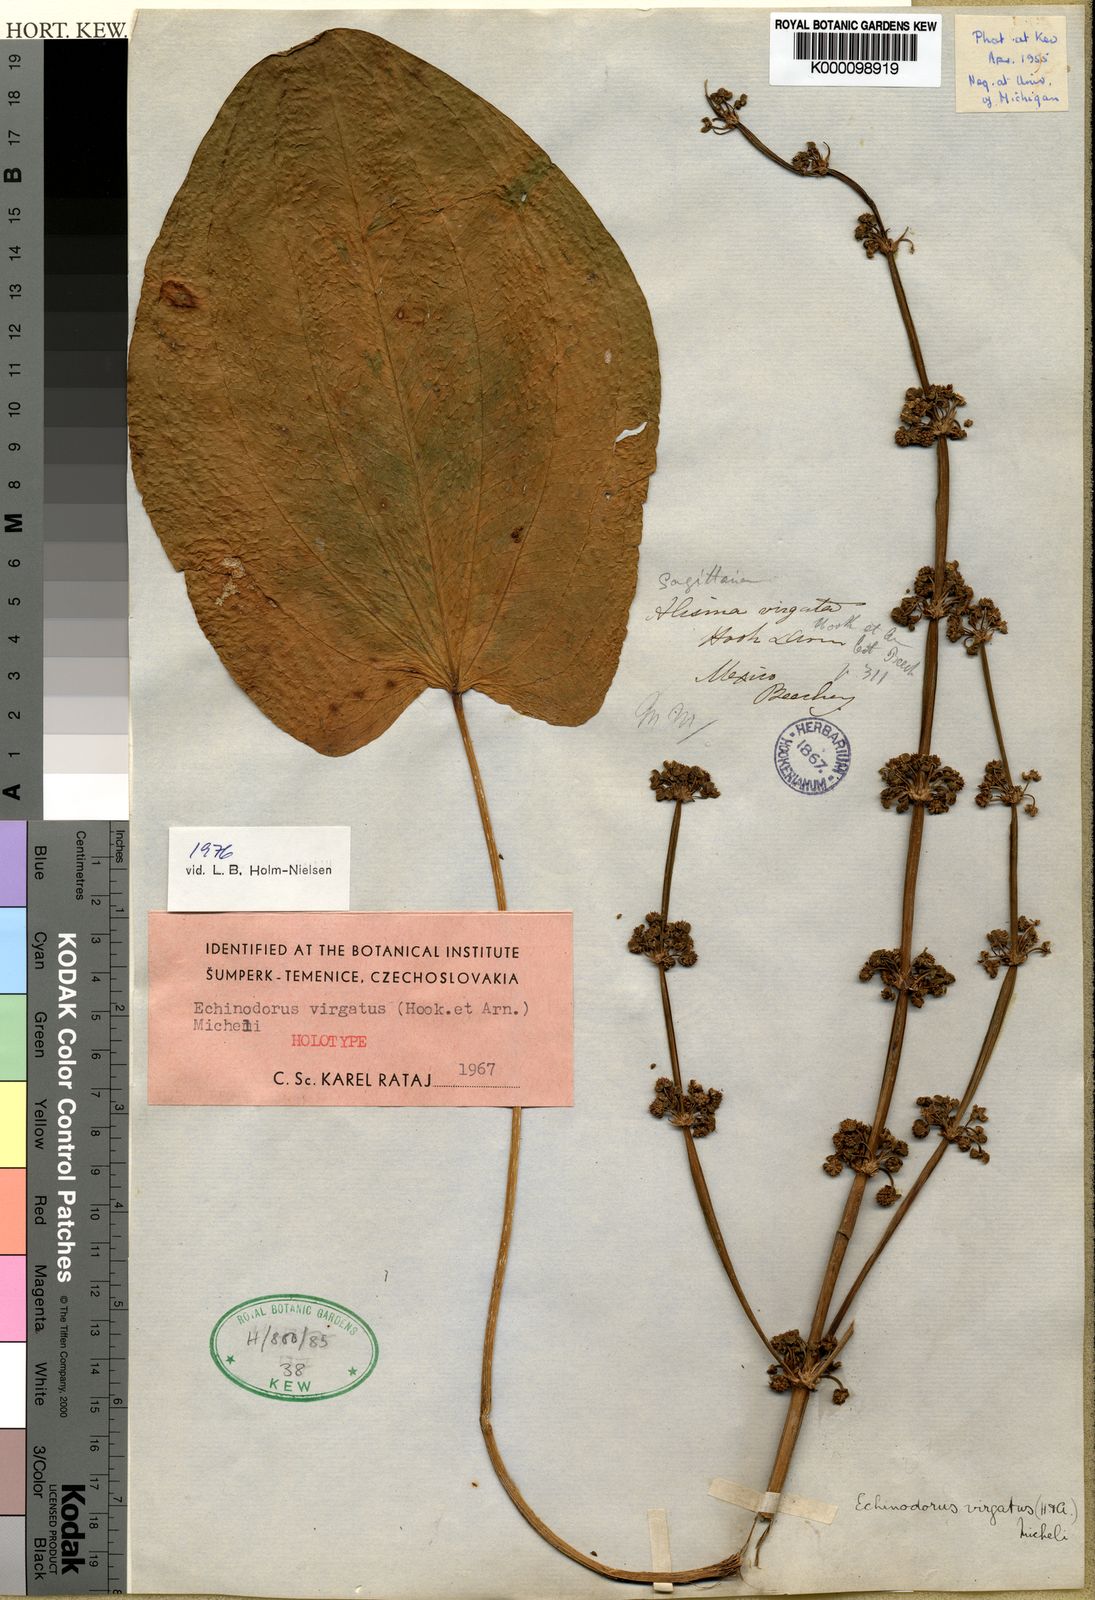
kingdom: Plantae
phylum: Tracheophyta
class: Liliopsida
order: Alismatales
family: Alismataceae
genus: Aquarius
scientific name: Aquarius palifolius
